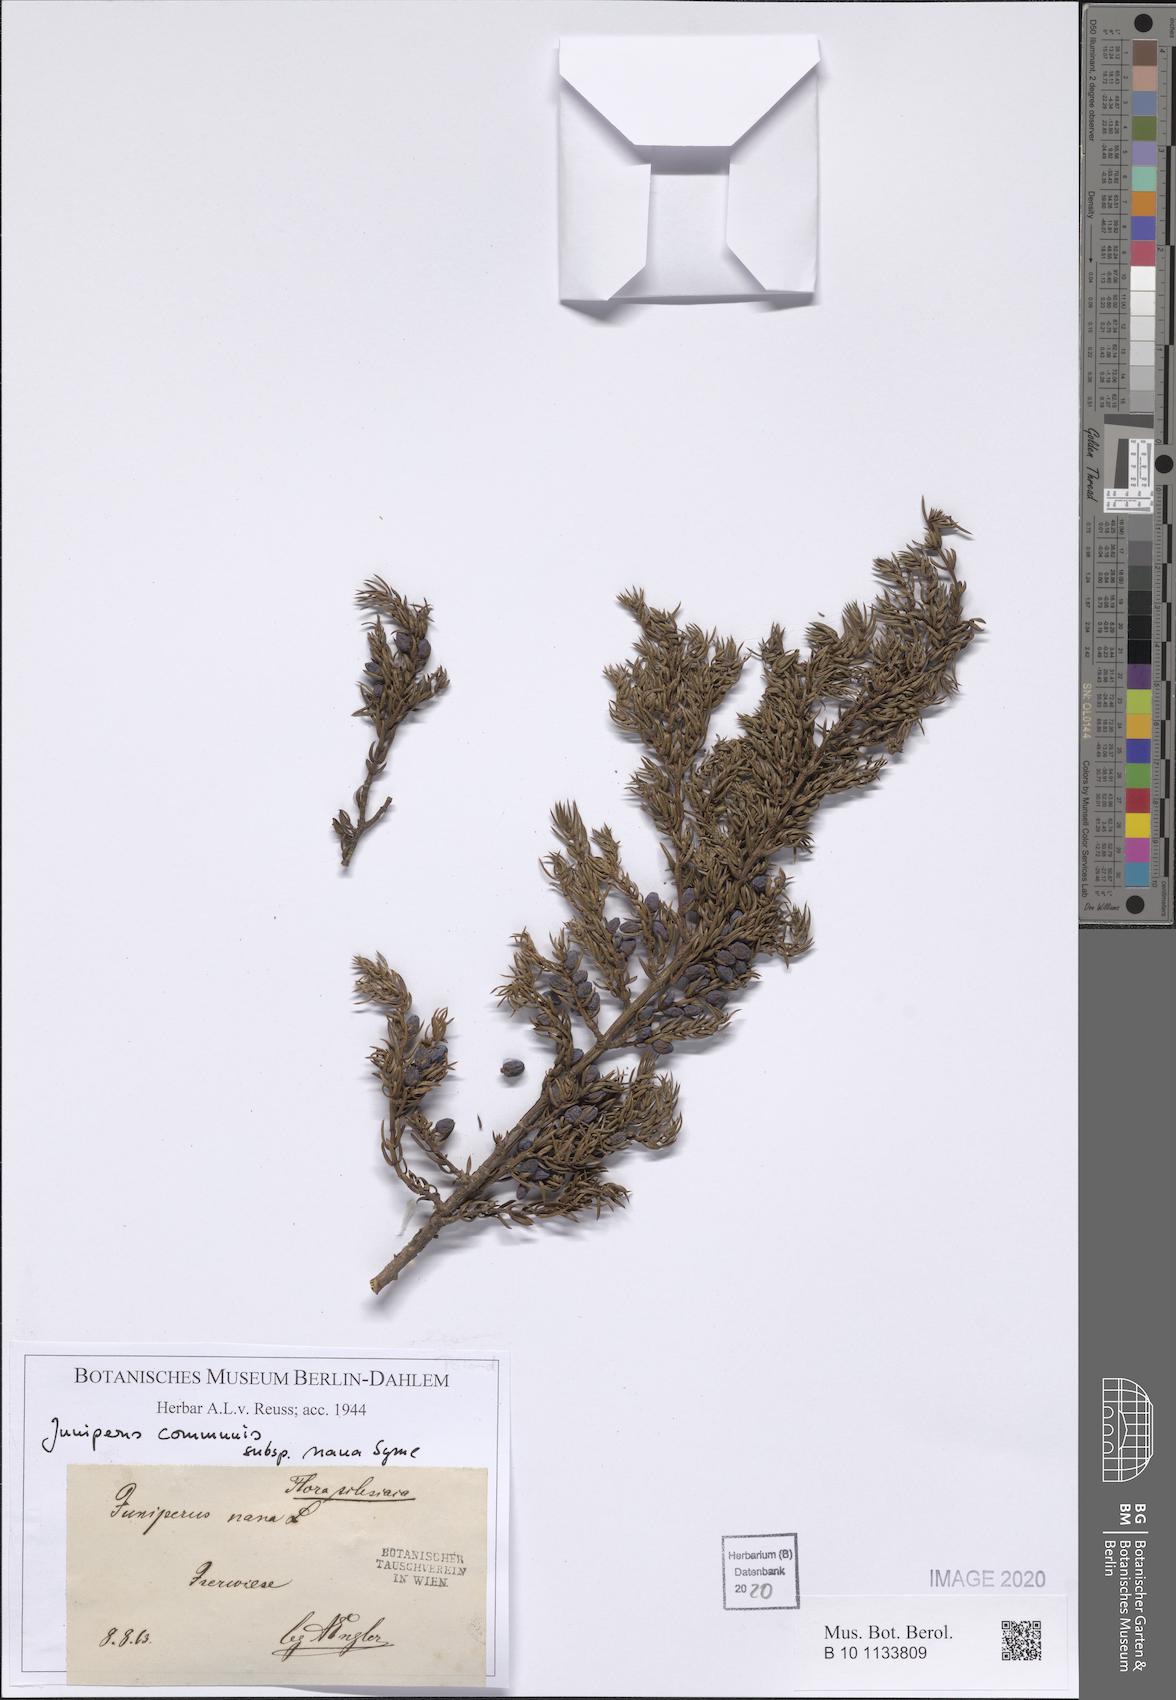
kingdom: Plantae
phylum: Tracheophyta
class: Pinopsida
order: Pinales
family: Cupressaceae
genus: Juniperus
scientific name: Juniperus communis
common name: Common juniper
